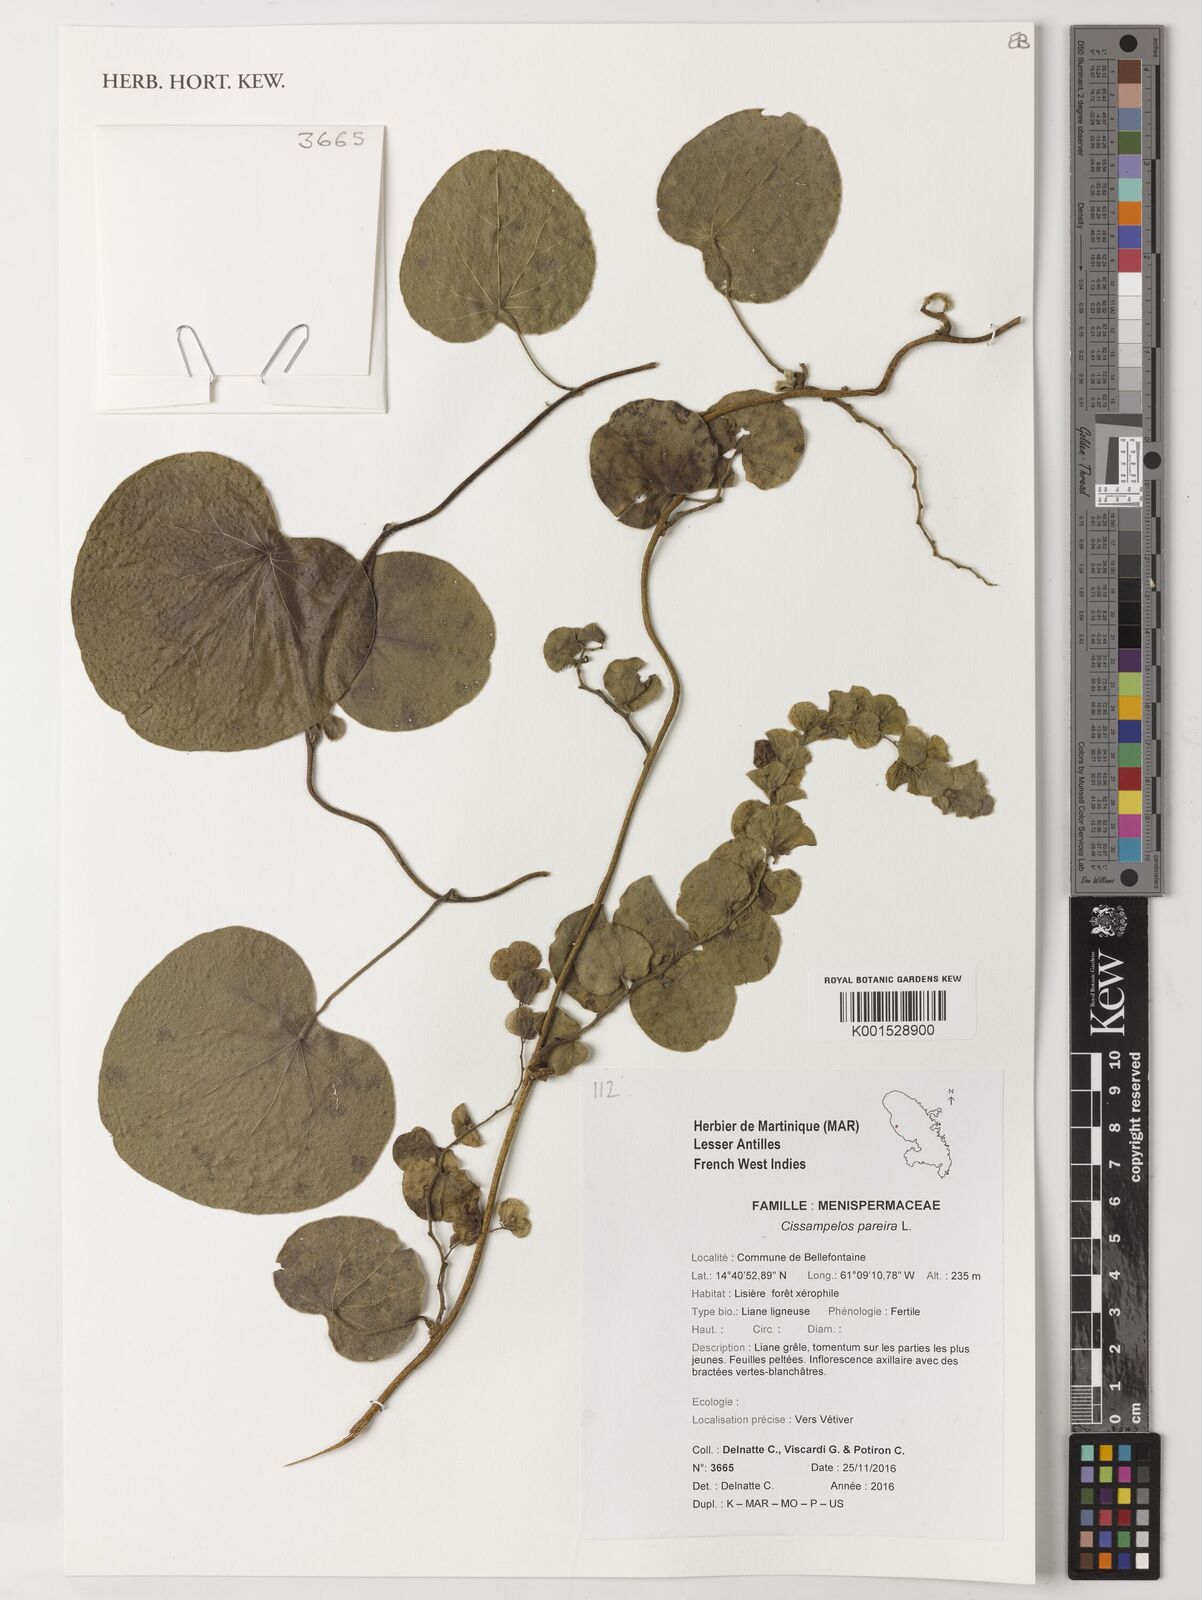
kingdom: Plantae
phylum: Tracheophyta
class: Magnoliopsida
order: Ranunculales
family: Menispermaceae
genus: Cissampelos
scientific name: Cissampelos pareira
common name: Velvetleaf
